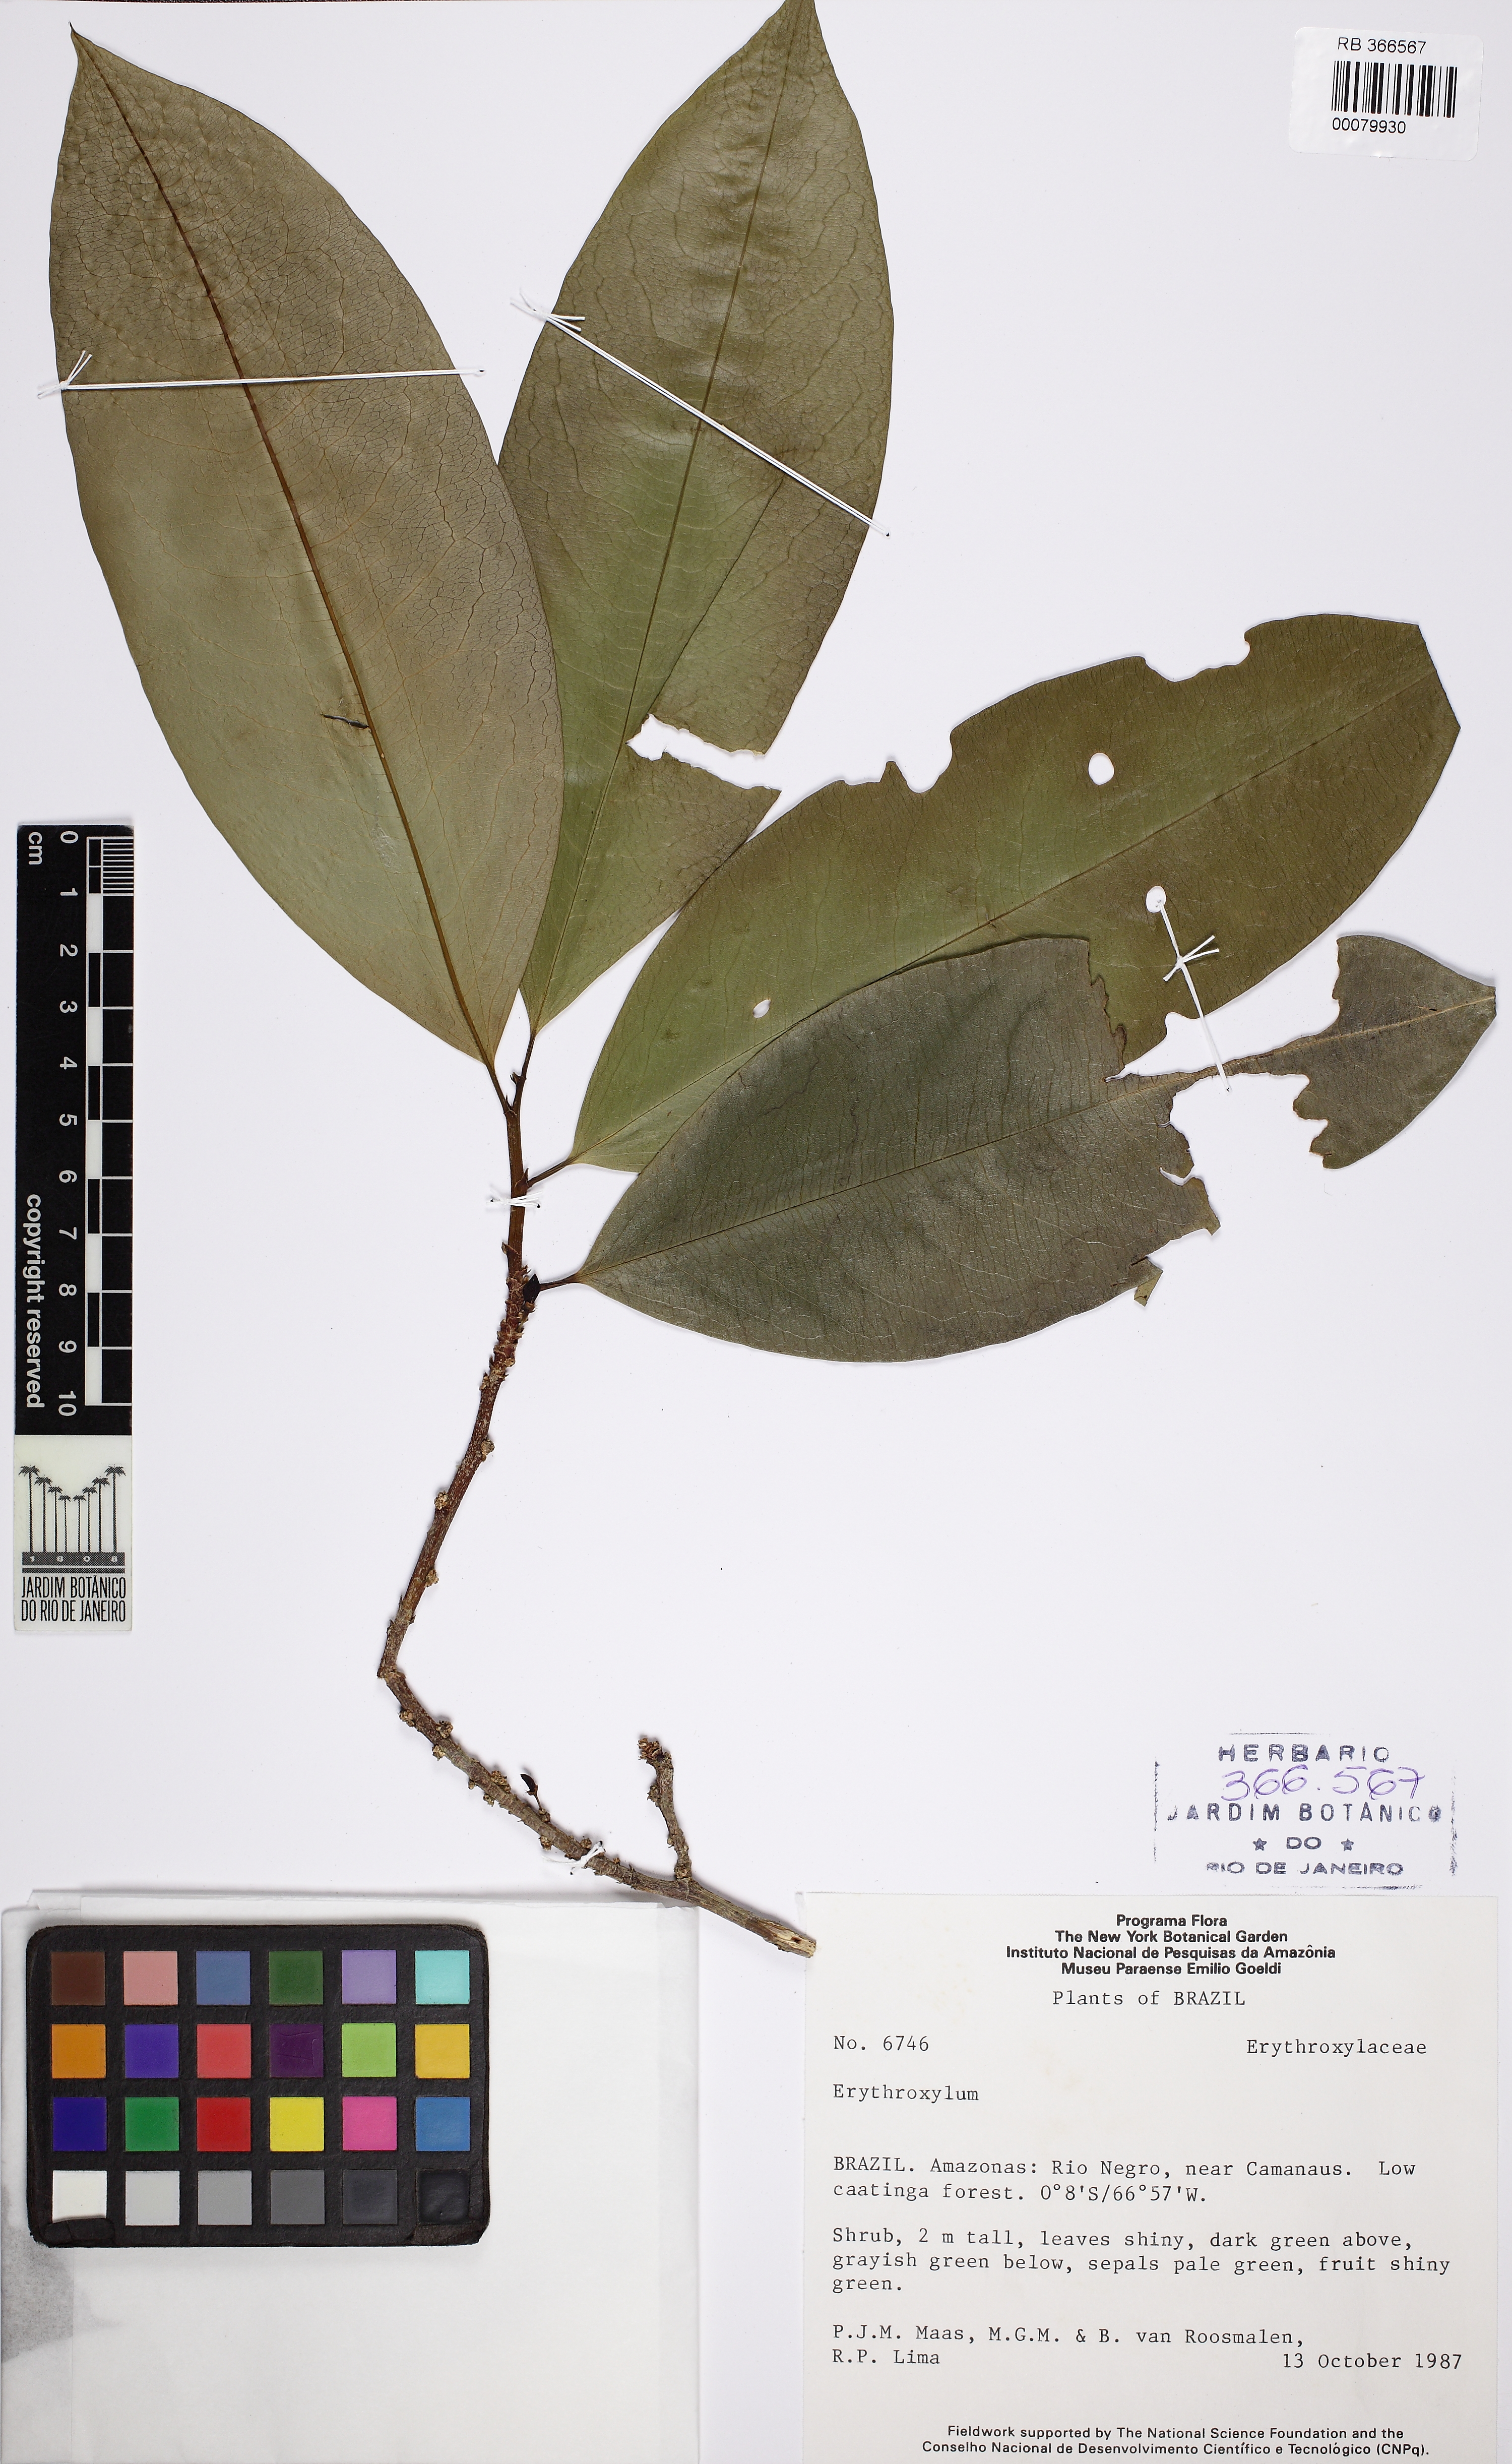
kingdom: Plantae
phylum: Tracheophyta
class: Magnoliopsida
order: Malpighiales
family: Erythroxylaceae
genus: Erythroxylum
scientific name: Erythroxylum
